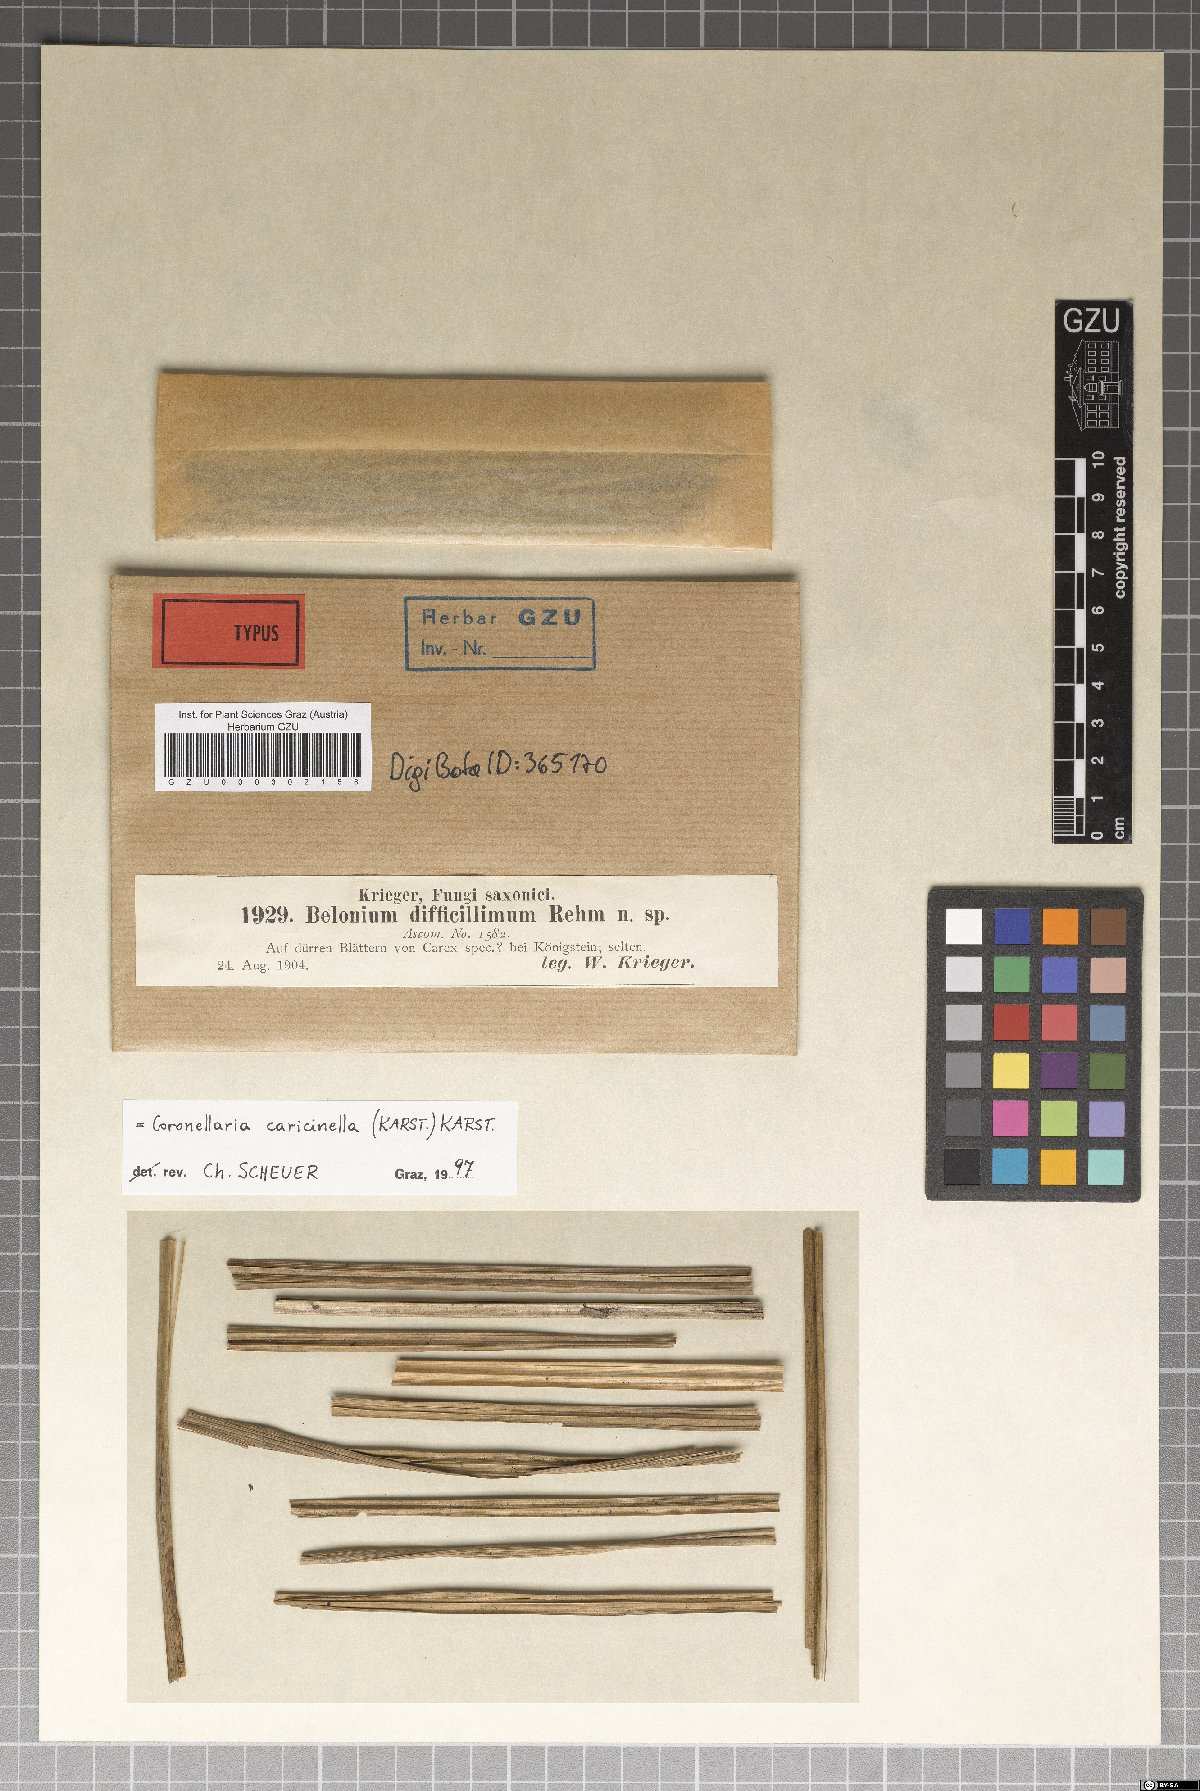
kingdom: Fungi
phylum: Ascomycota
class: Leotiomycetes
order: Helotiales
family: Lachnaceae
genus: Belonidium
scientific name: Belonidium difficillimum
